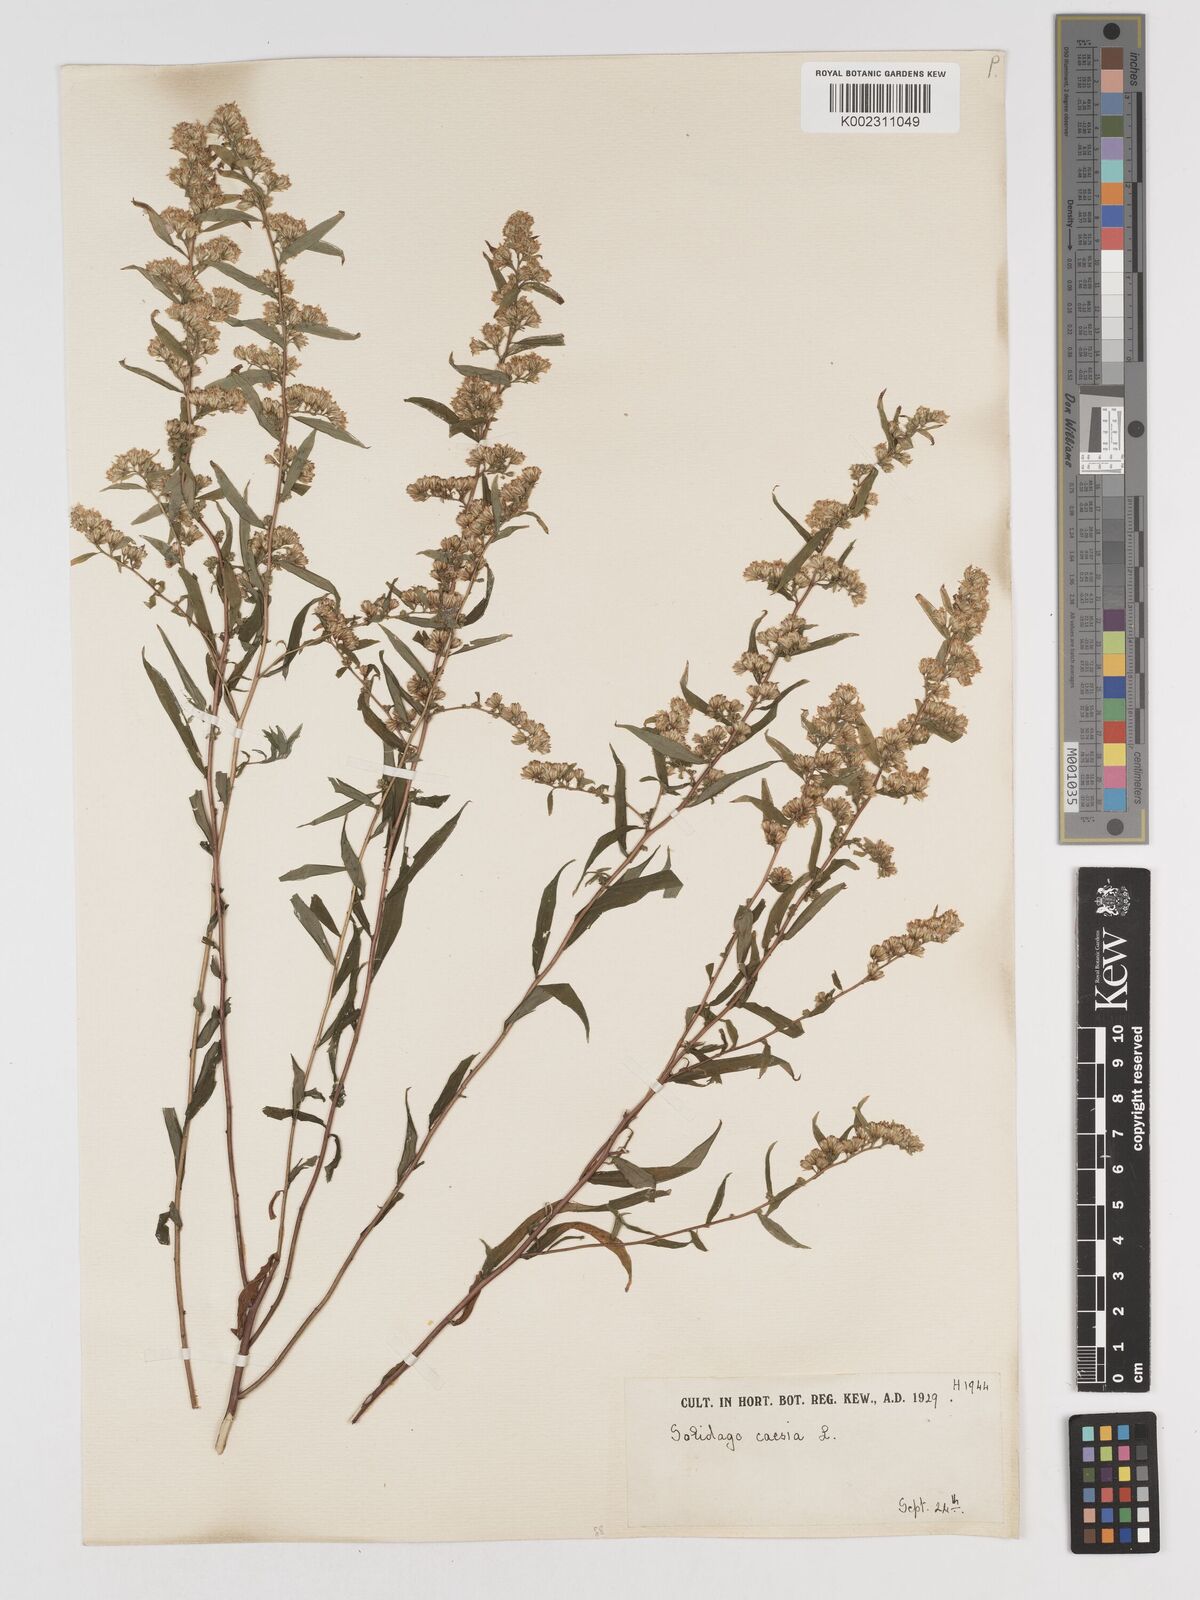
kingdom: Plantae
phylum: Tracheophyta
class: Magnoliopsida
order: Asterales
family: Asteraceae
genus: Solidago
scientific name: Solidago caesia
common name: Woodland goldenrod
